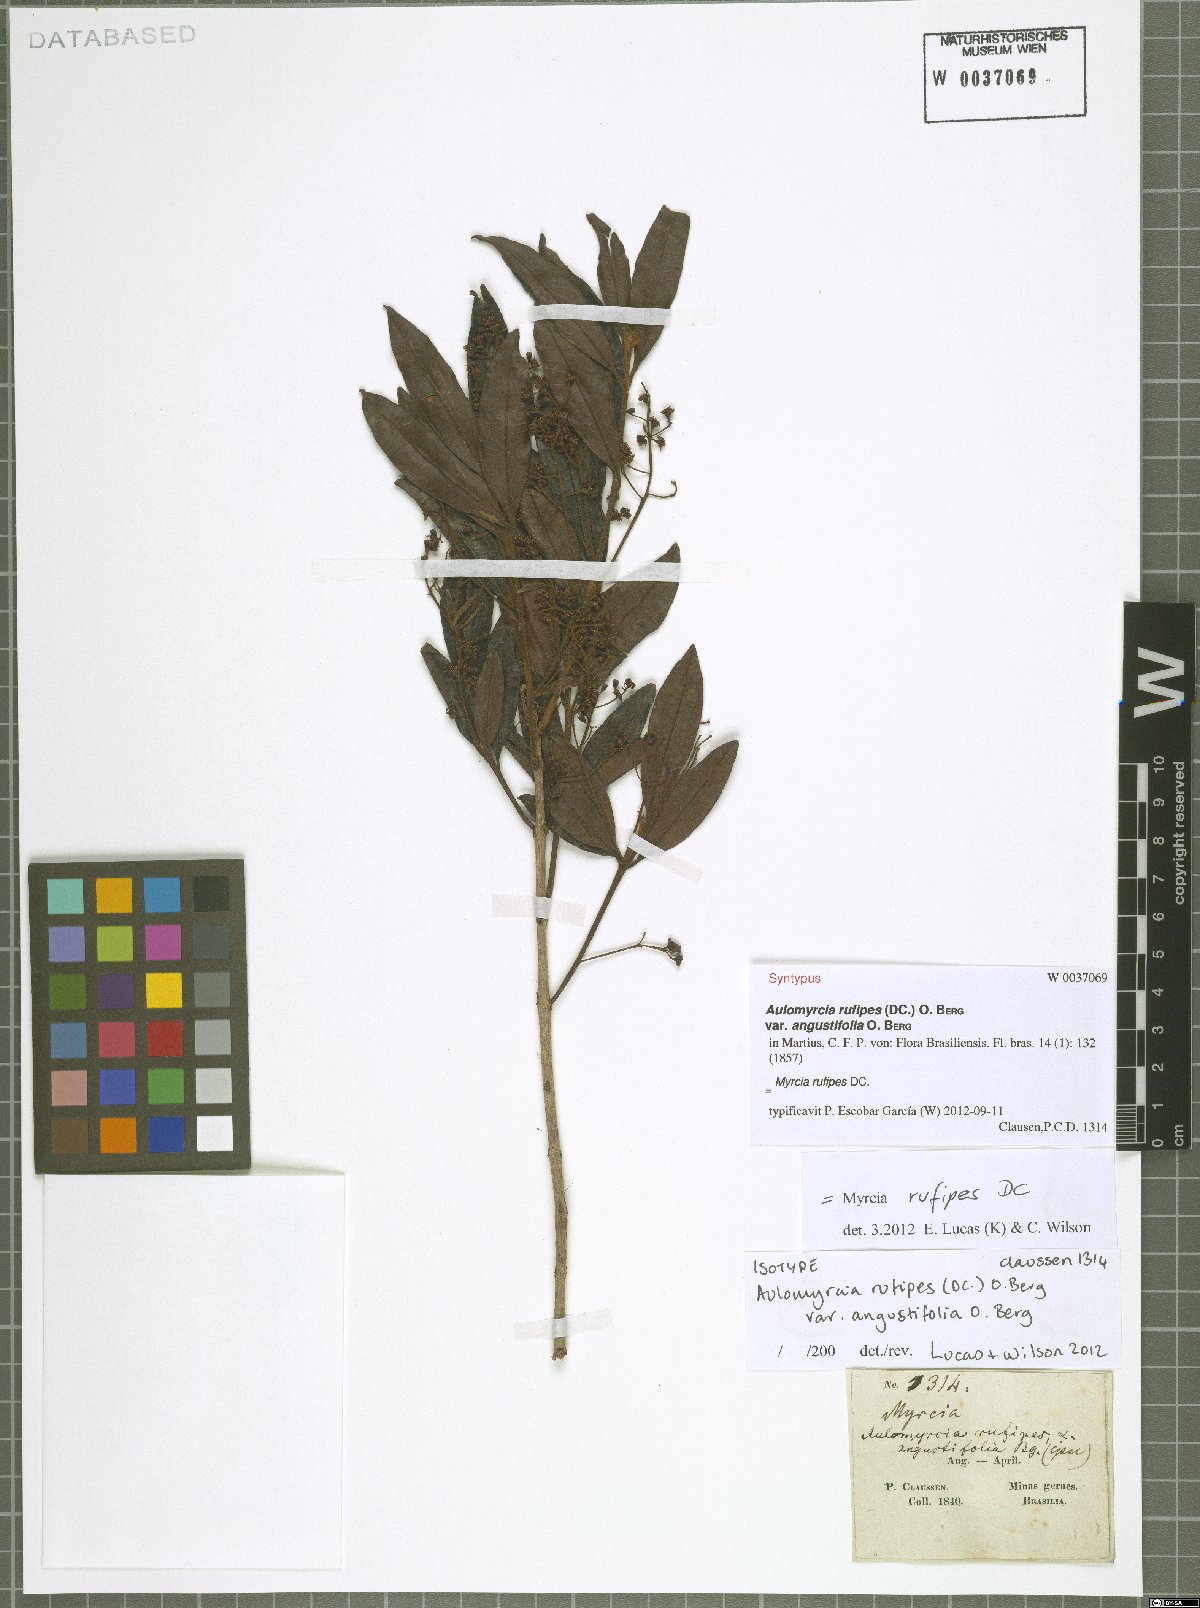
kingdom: Plantae
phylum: Tracheophyta
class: Magnoliopsida
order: Myrtales
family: Myrtaceae
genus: Myrcia
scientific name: Myrcia rufipes
